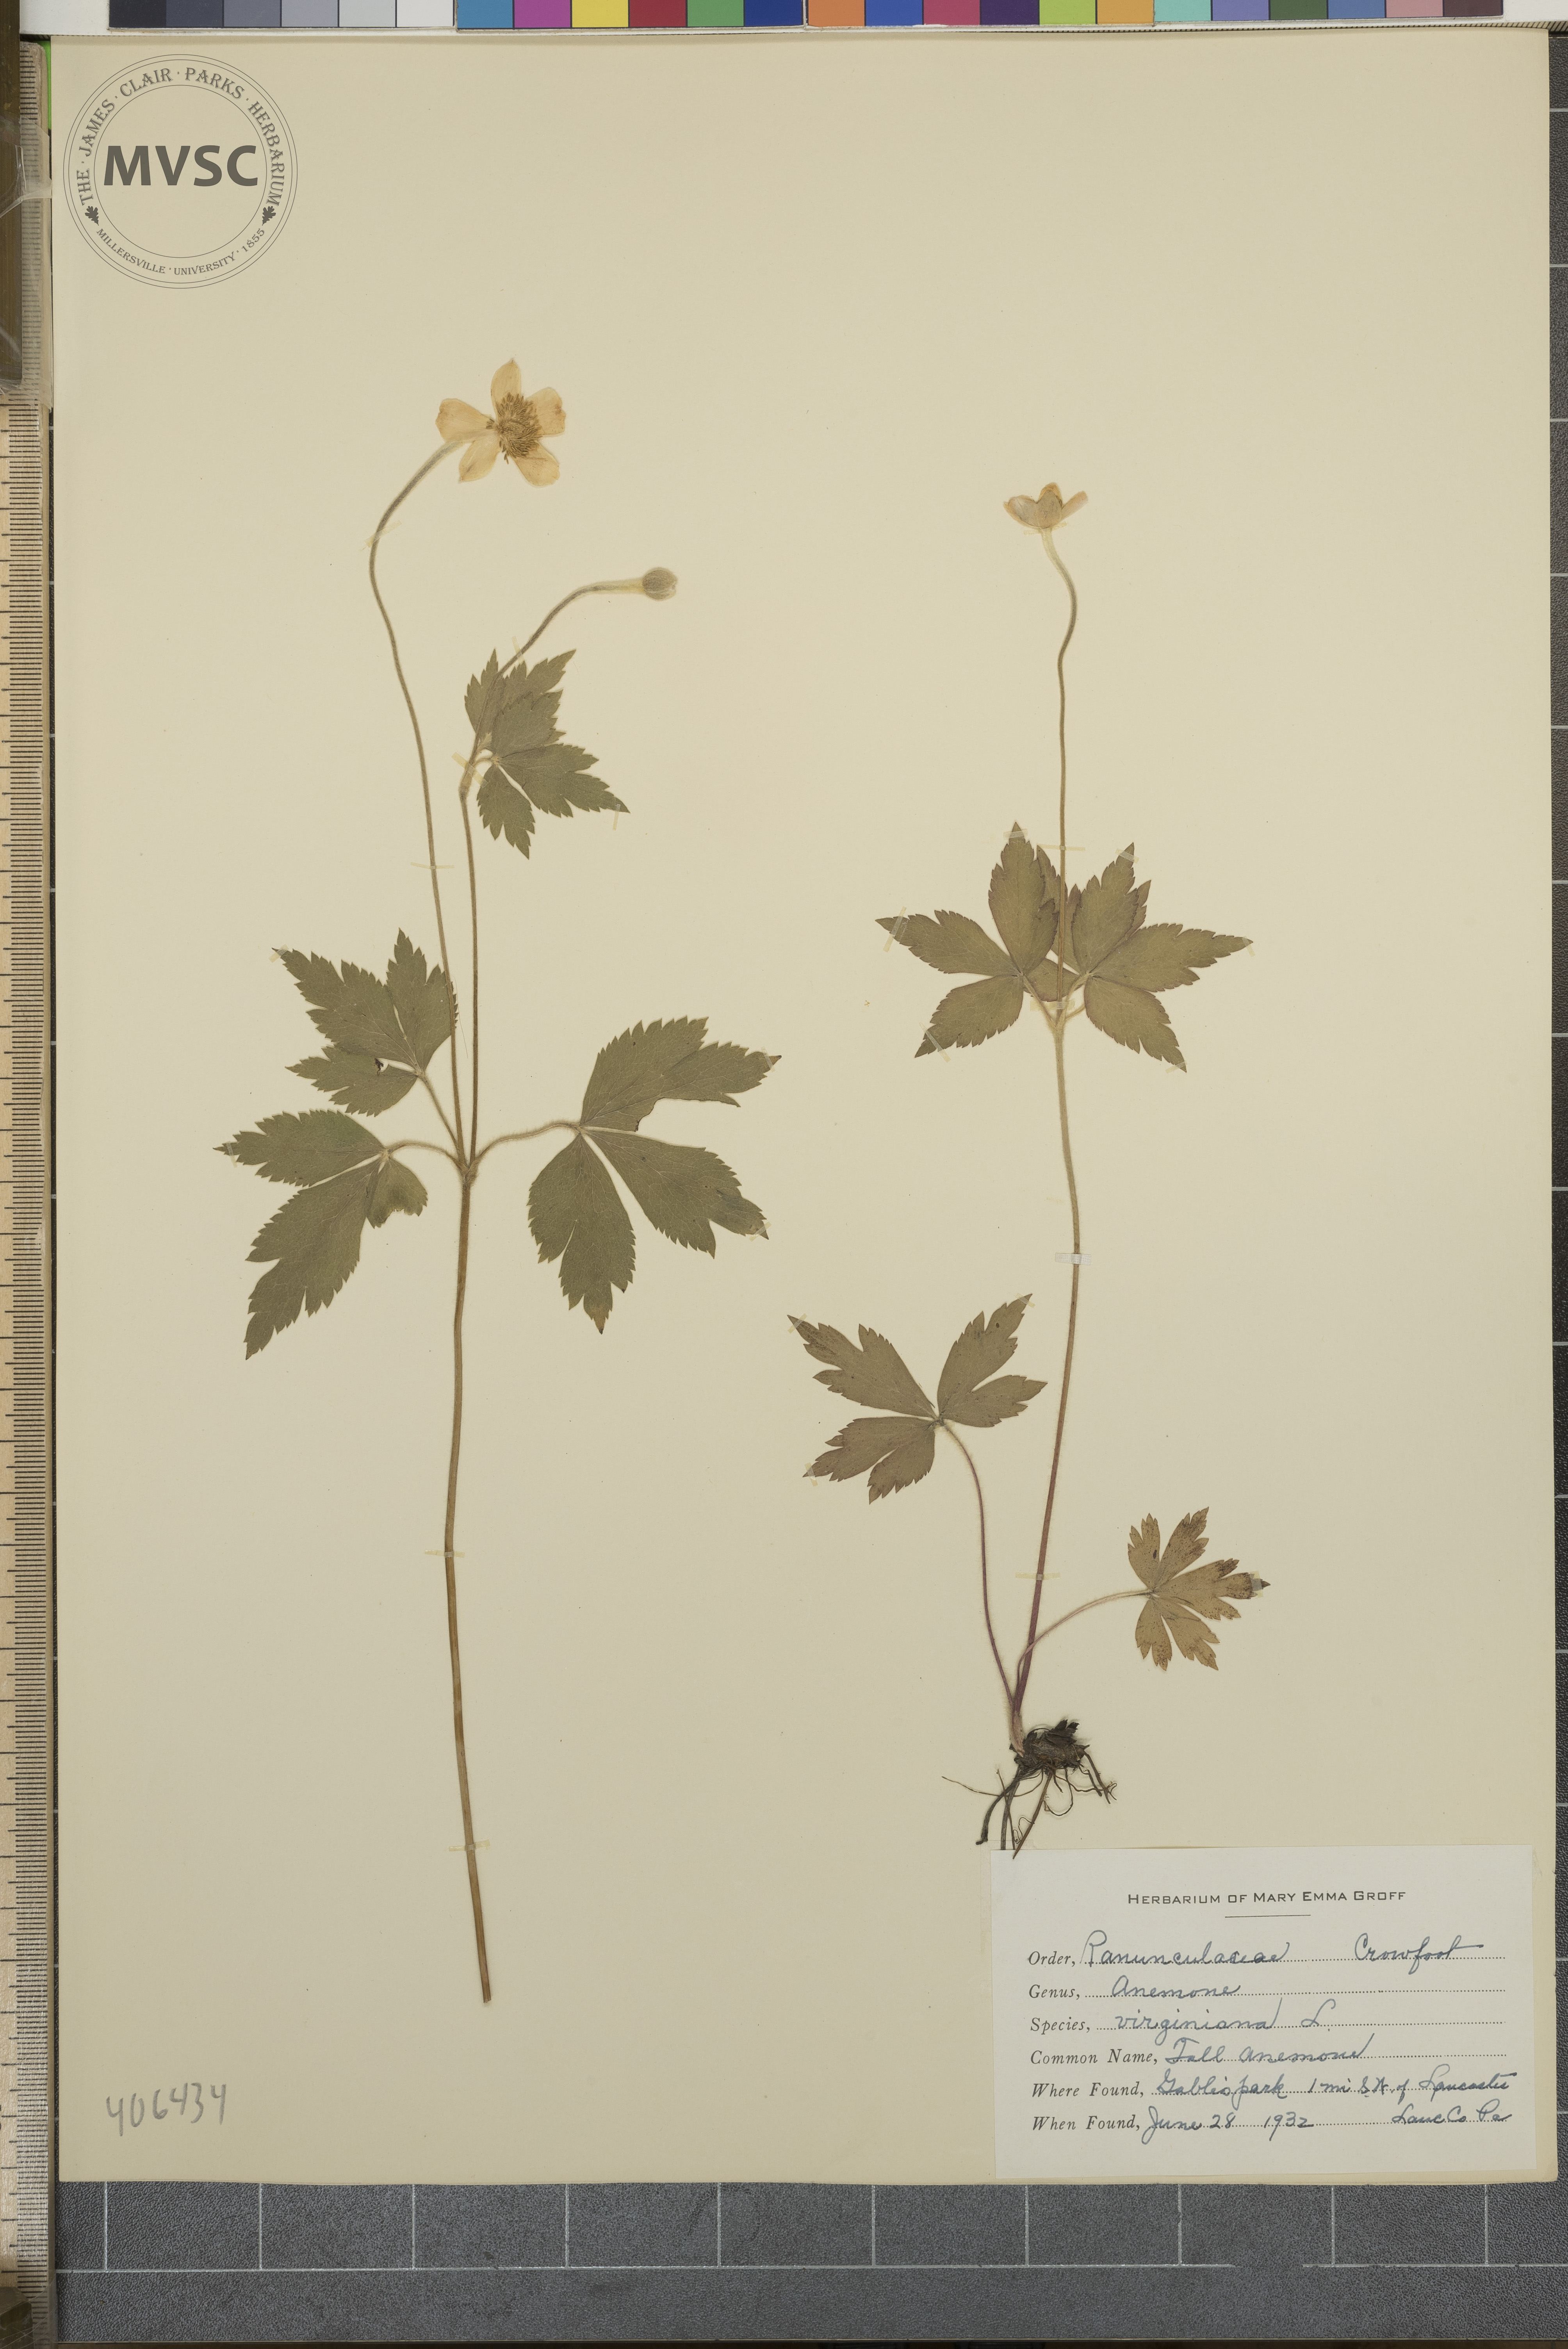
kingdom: Plantae
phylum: Tracheophyta
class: Magnoliopsida
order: Ranunculales
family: Ranunculaceae
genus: Anemone
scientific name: Anemone virginiana
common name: Tall Anemone
